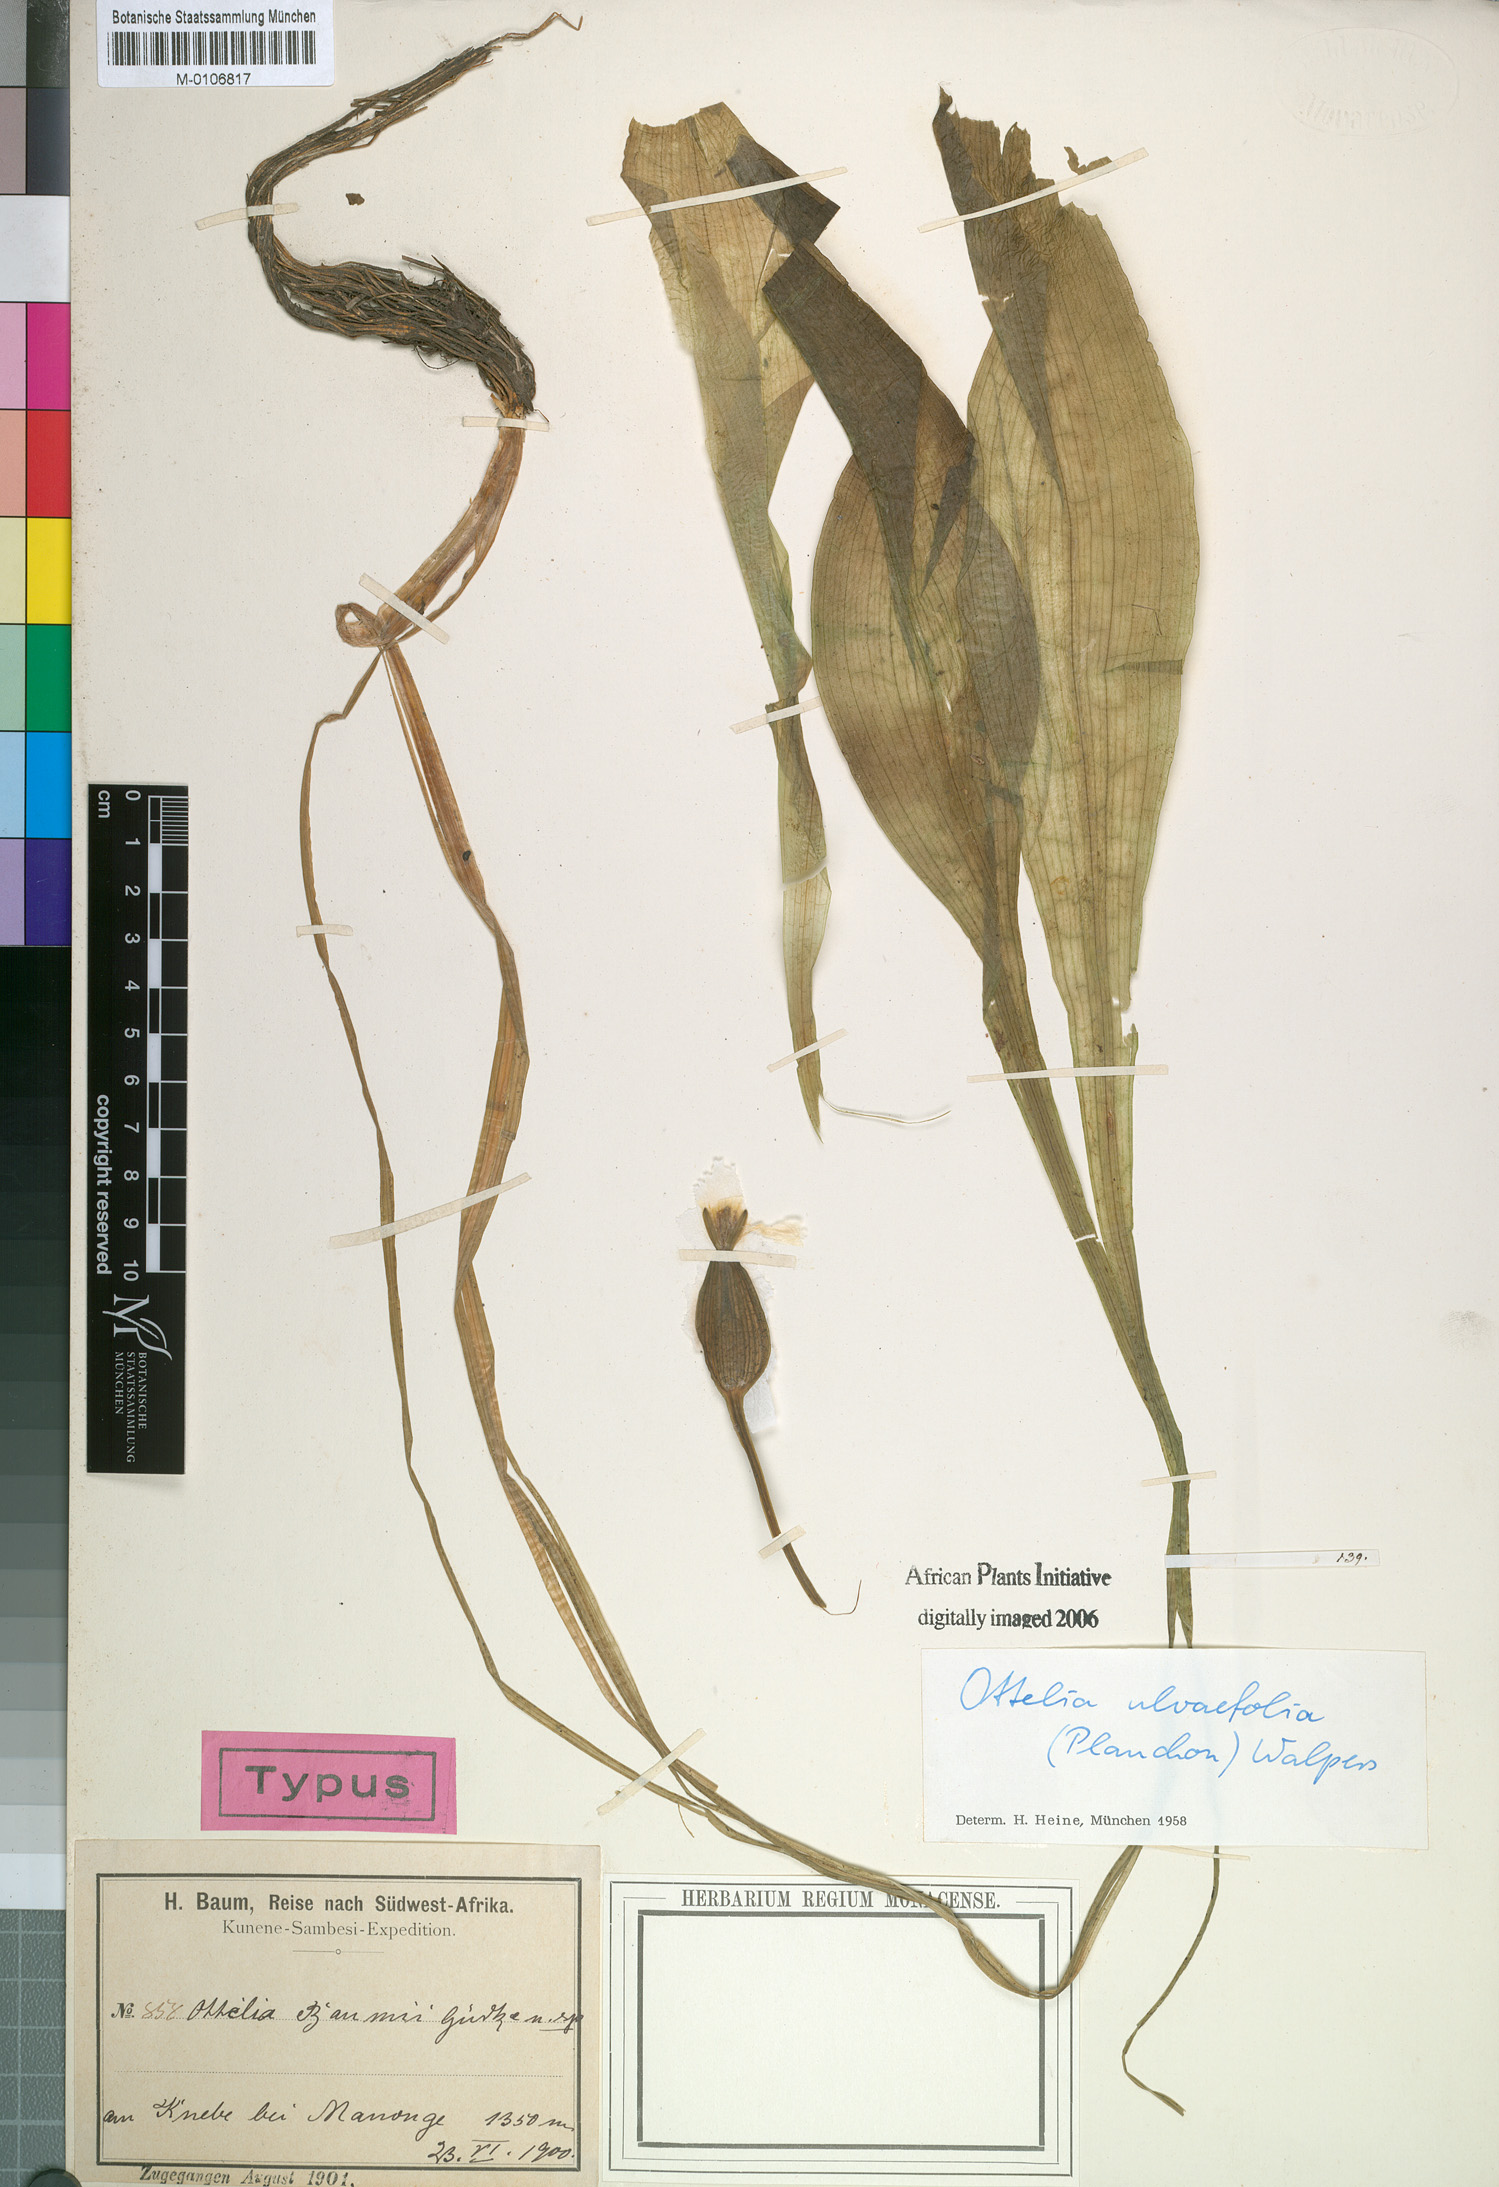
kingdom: Plantae
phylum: Tracheophyta
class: Liliopsida
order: Alismatales
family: Hydrocharitaceae
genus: Ottelia
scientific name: Ottelia ulvifolia
